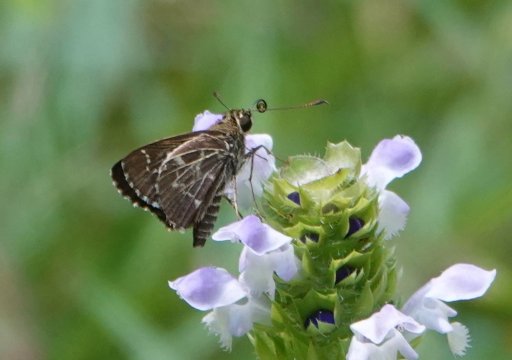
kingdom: Animalia
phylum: Arthropoda
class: Insecta
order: Lepidoptera
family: Hesperiidae
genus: Mastor
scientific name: Mastor aesculapius
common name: Lace-winged Roadside-Skipper
